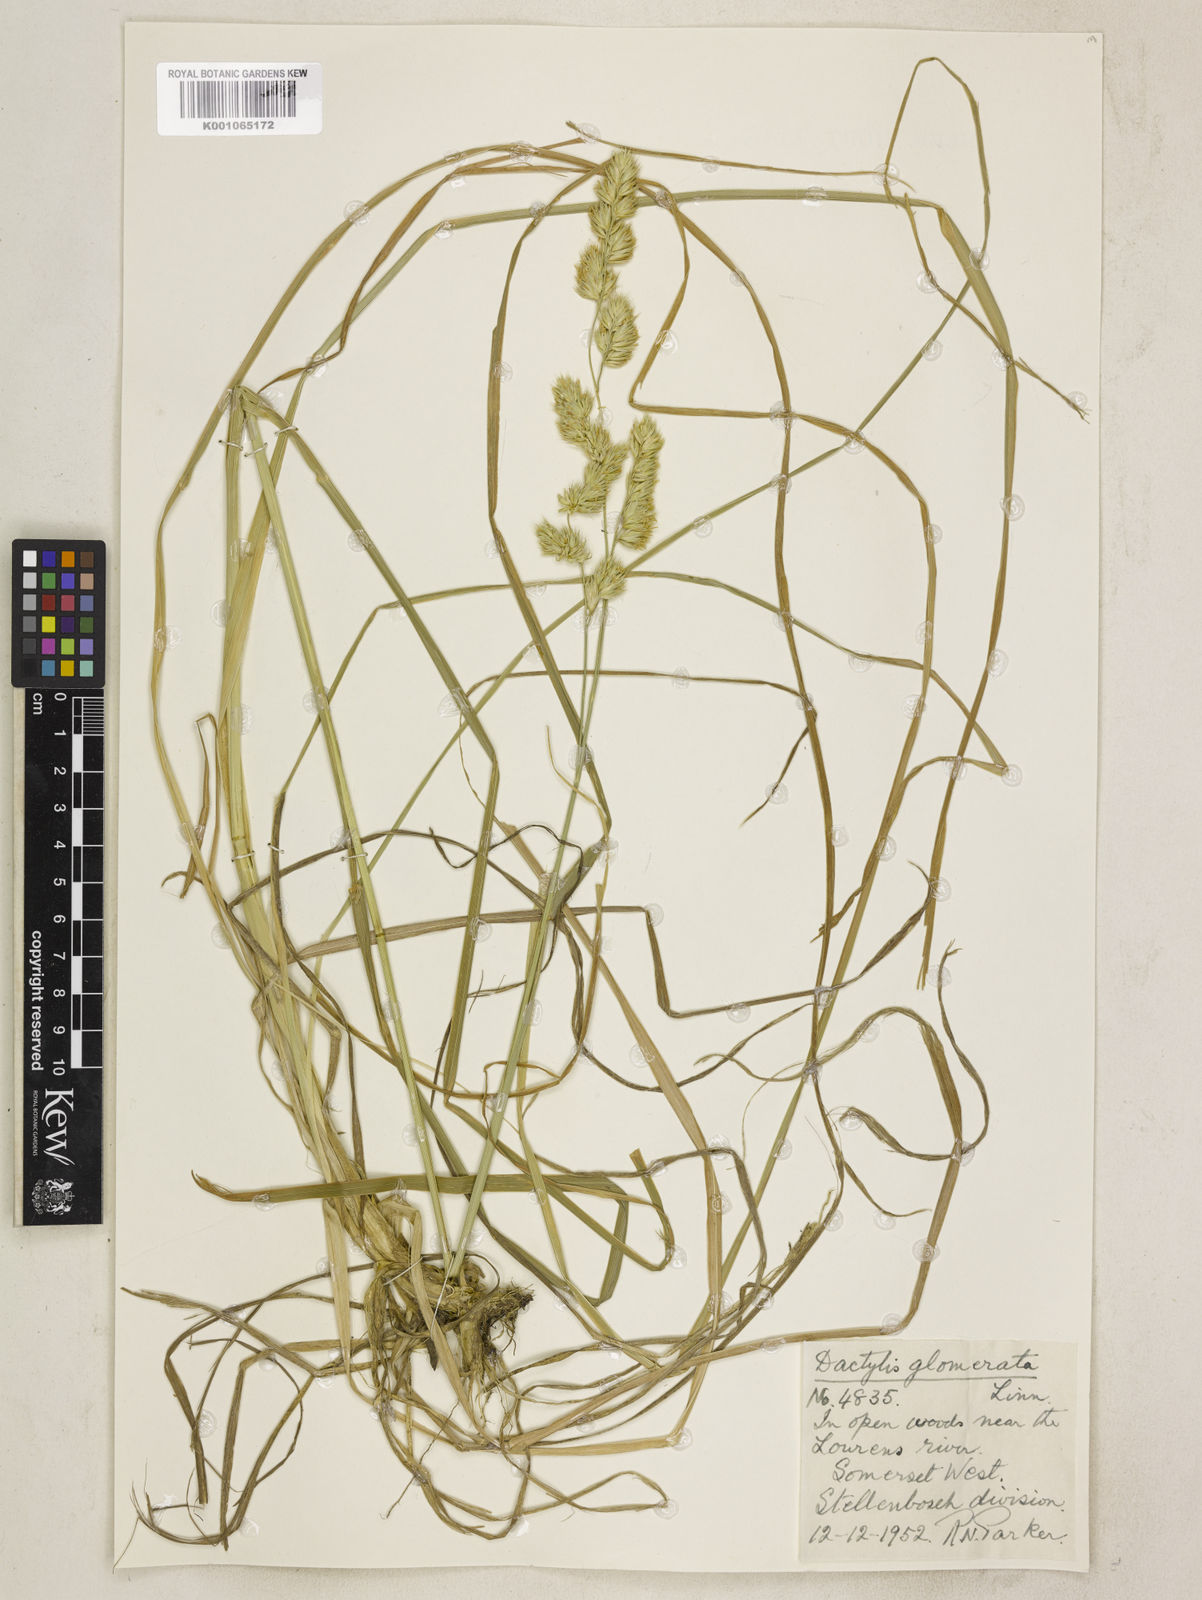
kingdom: Plantae
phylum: Tracheophyta
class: Liliopsida
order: Poales
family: Poaceae
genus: Dactylis
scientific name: Dactylis glomerata
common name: Orchardgrass
